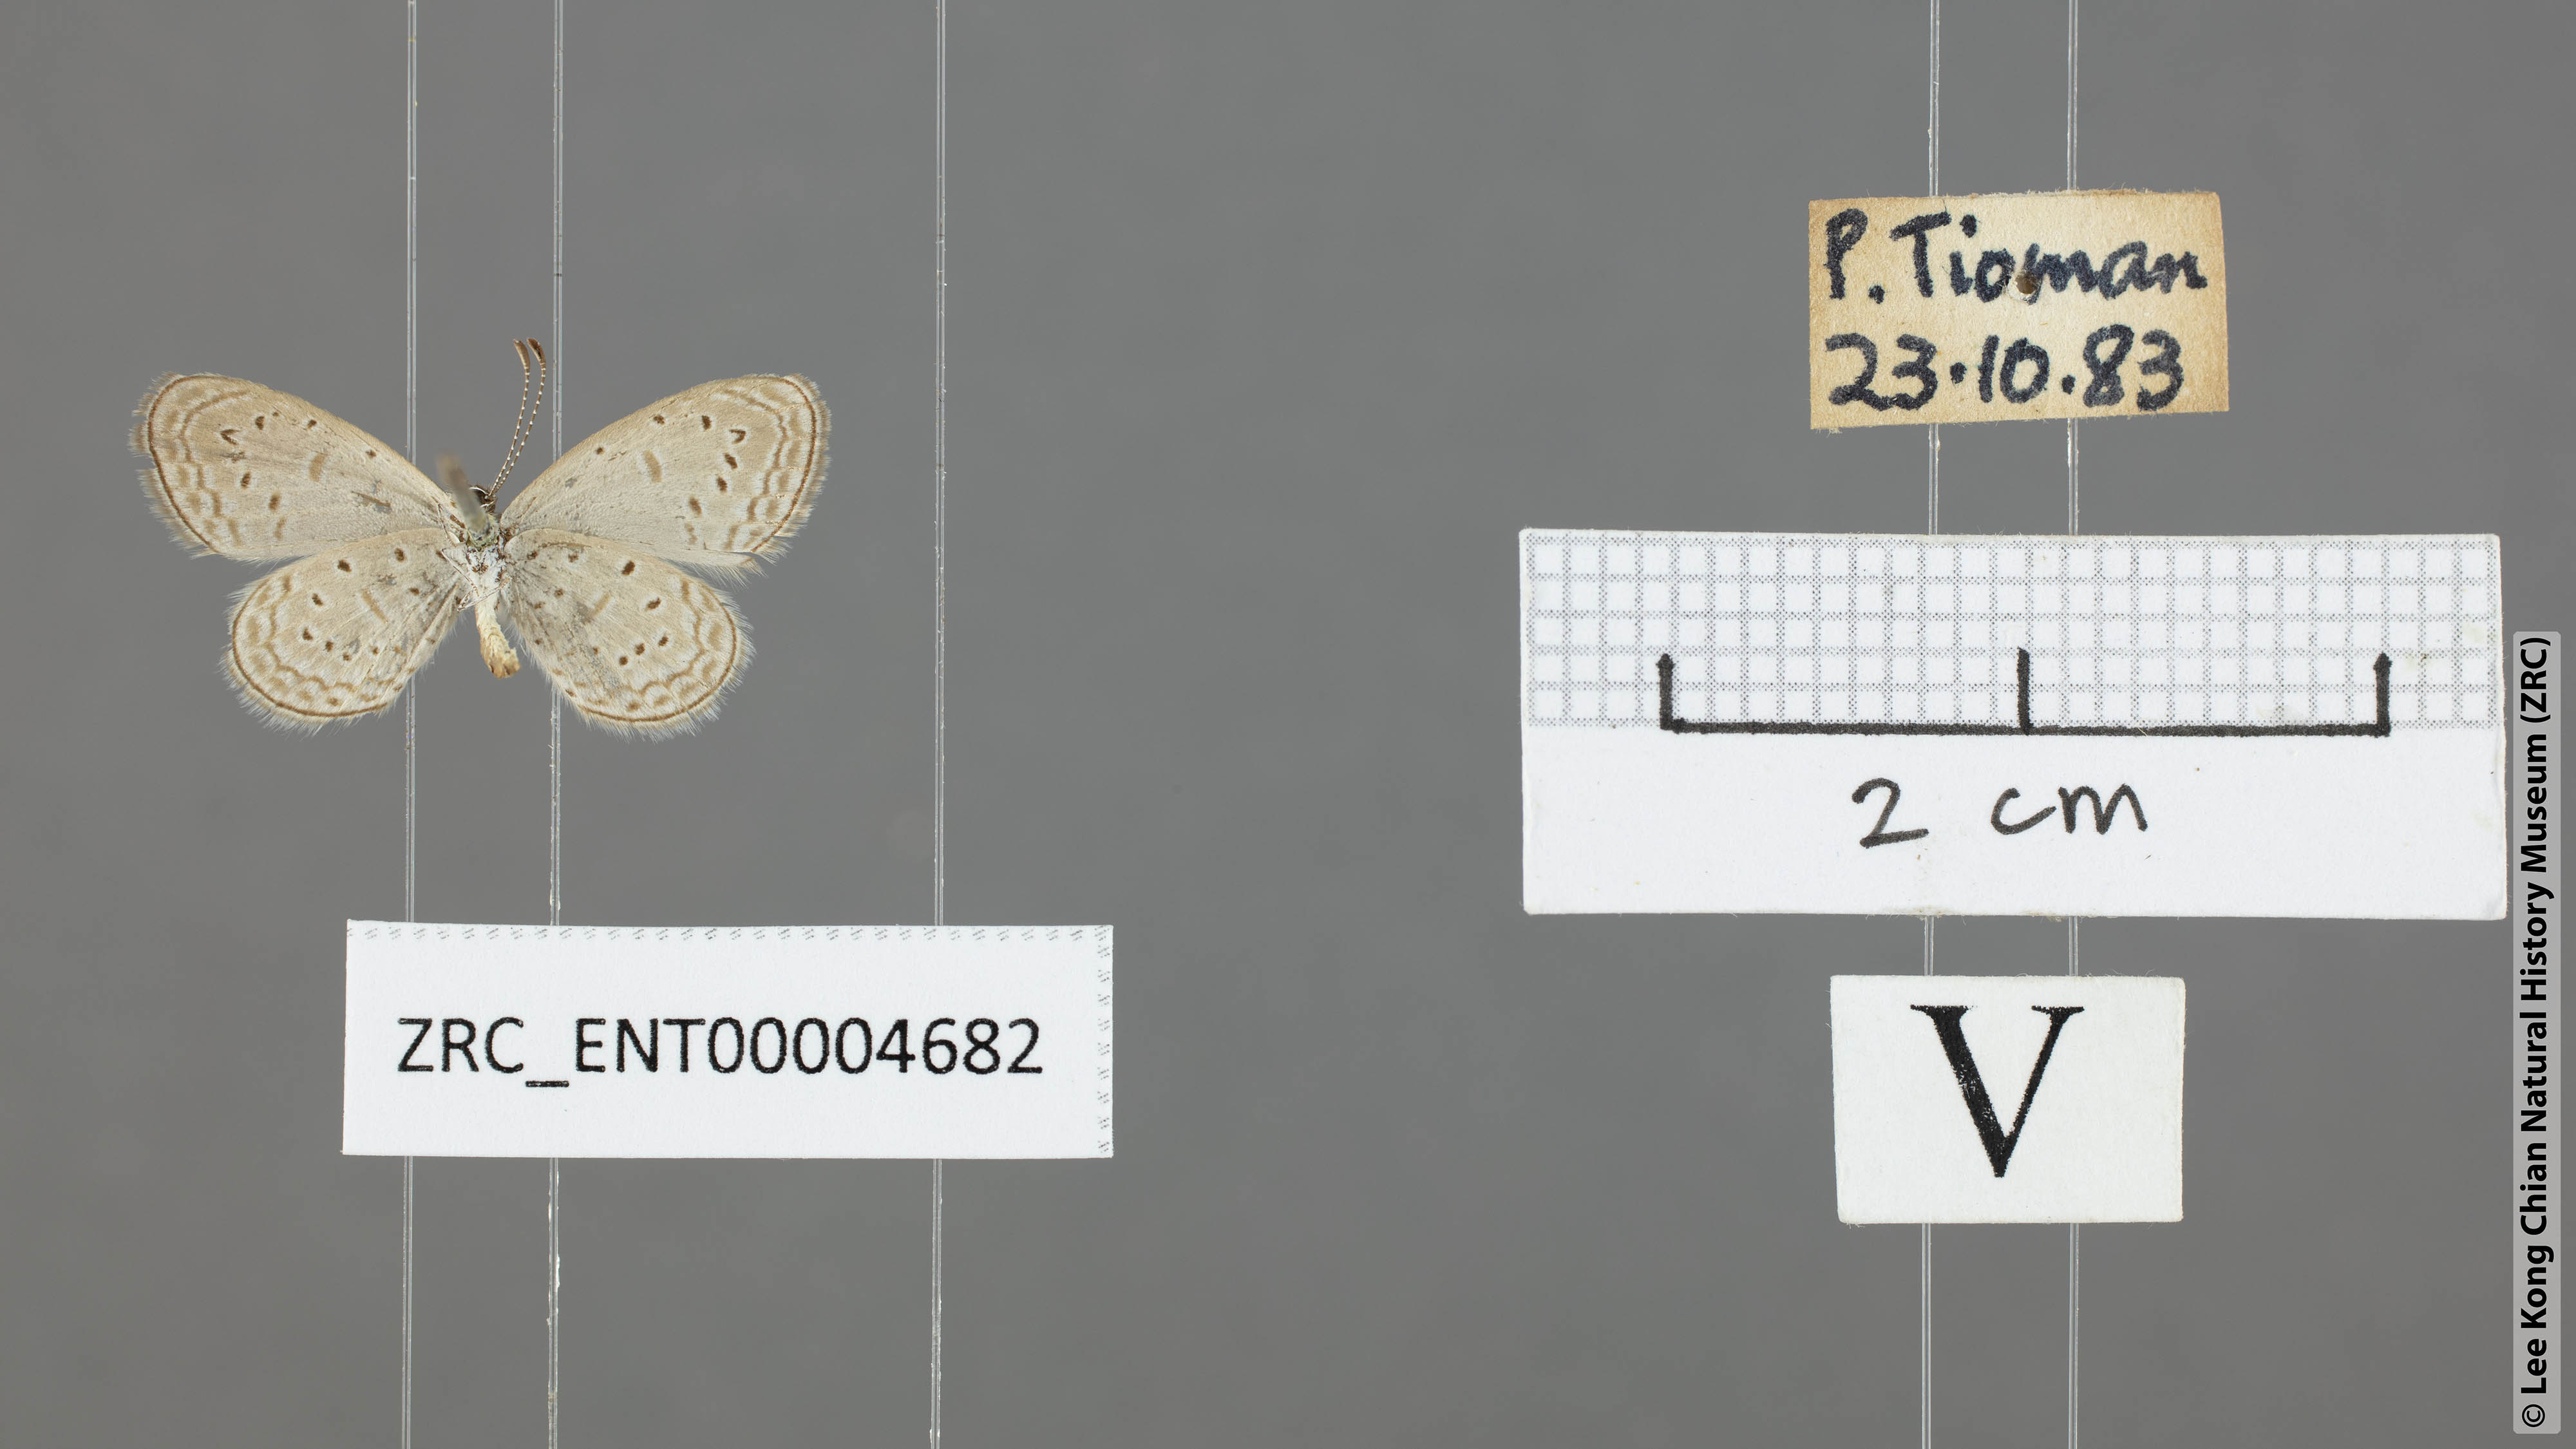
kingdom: Animalia
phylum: Arthropoda
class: Insecta
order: Lepidoptera
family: Lycaenidae
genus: Zizula
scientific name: Zizula hylax
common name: Gaika blue
